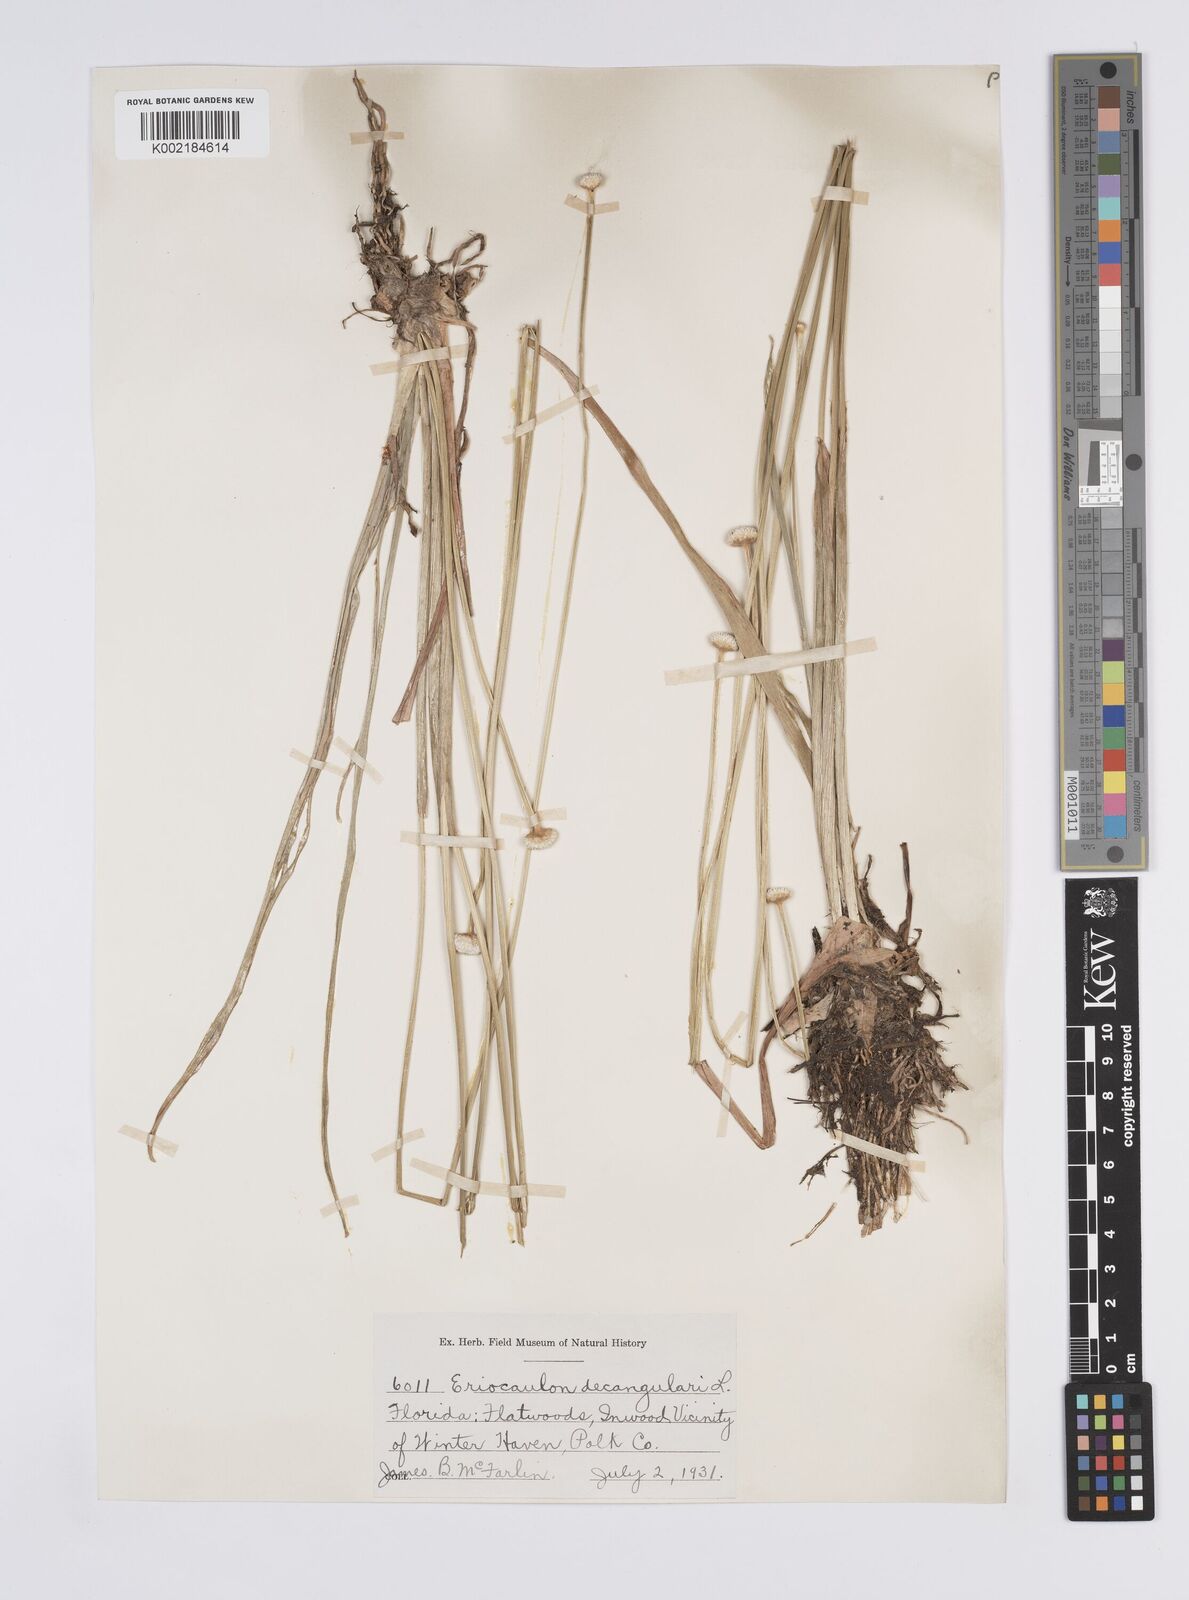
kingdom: Plantae
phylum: Tracheophyta
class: Liliopsida
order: Poales
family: Eriocaulaceae
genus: Eriocaulon
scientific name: Eriocaulon decangulare
